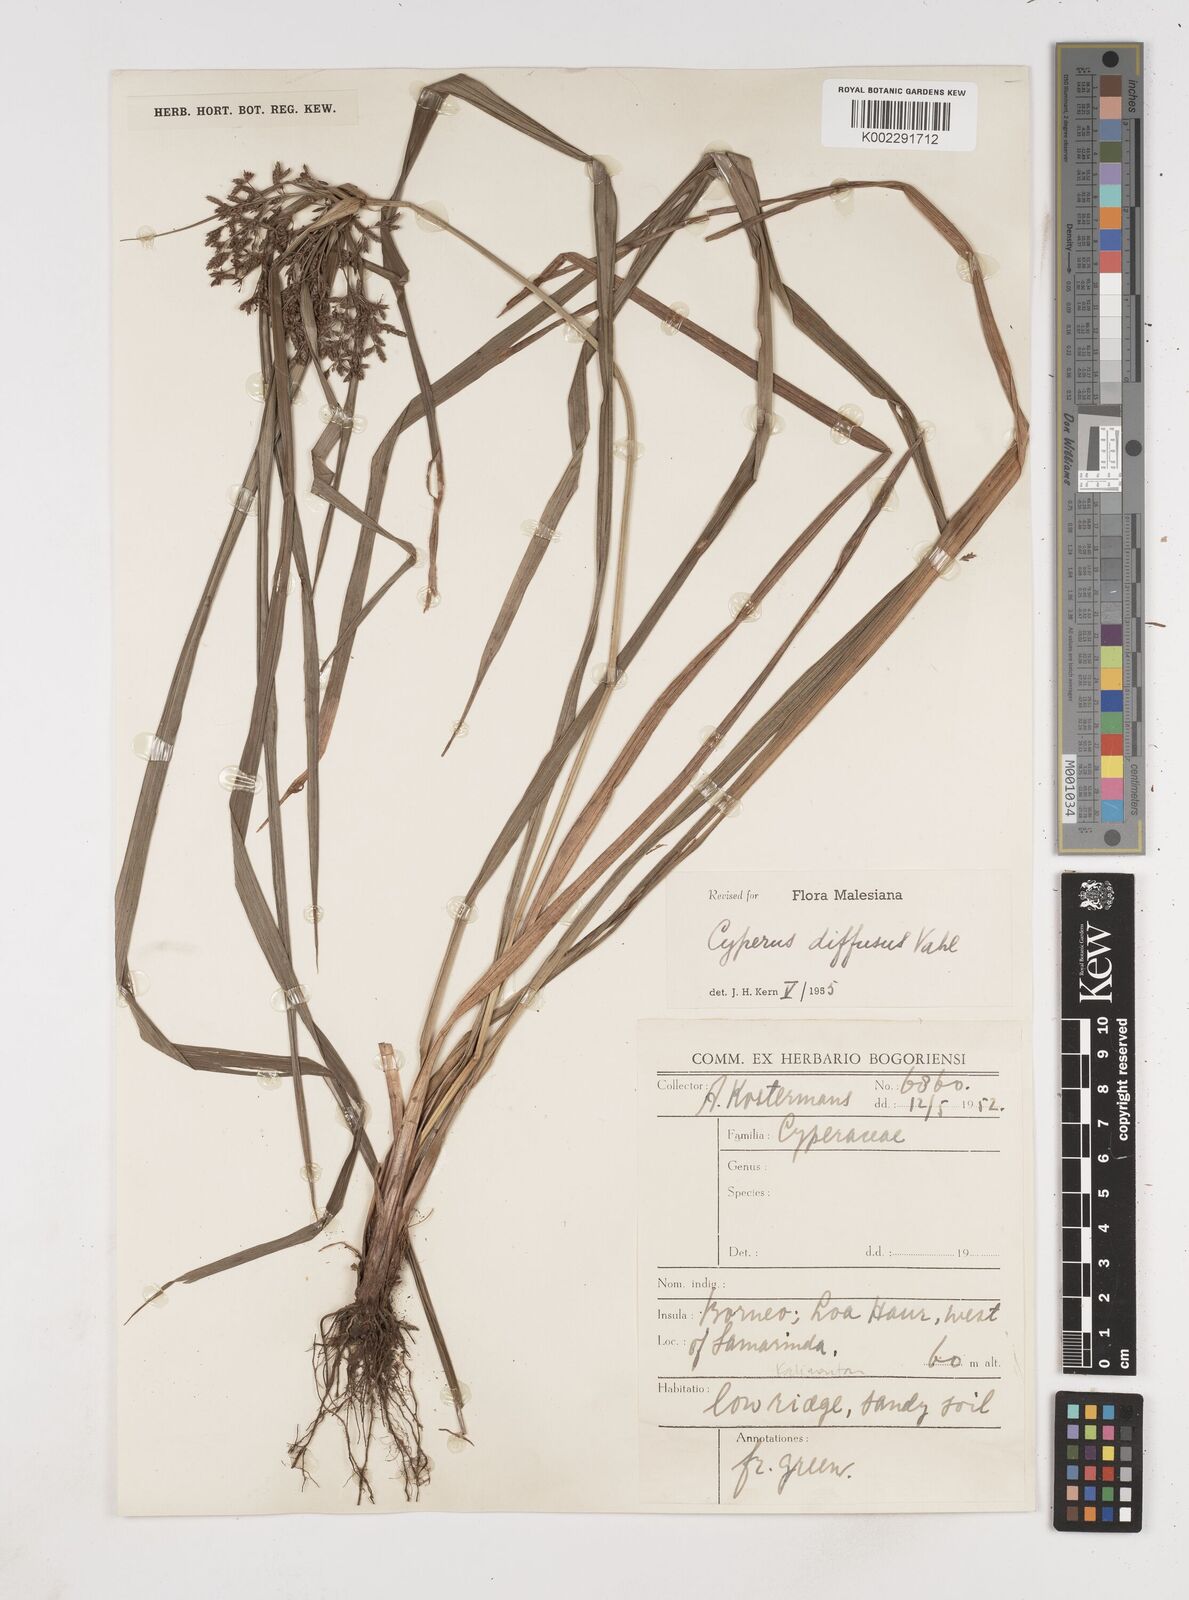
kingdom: Plantae
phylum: Tracheophyta
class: Liliopsida
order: Poales
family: Cyperaceae
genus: Cyperus
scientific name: Cyperus diffusus
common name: Dwarf umbrella grass
